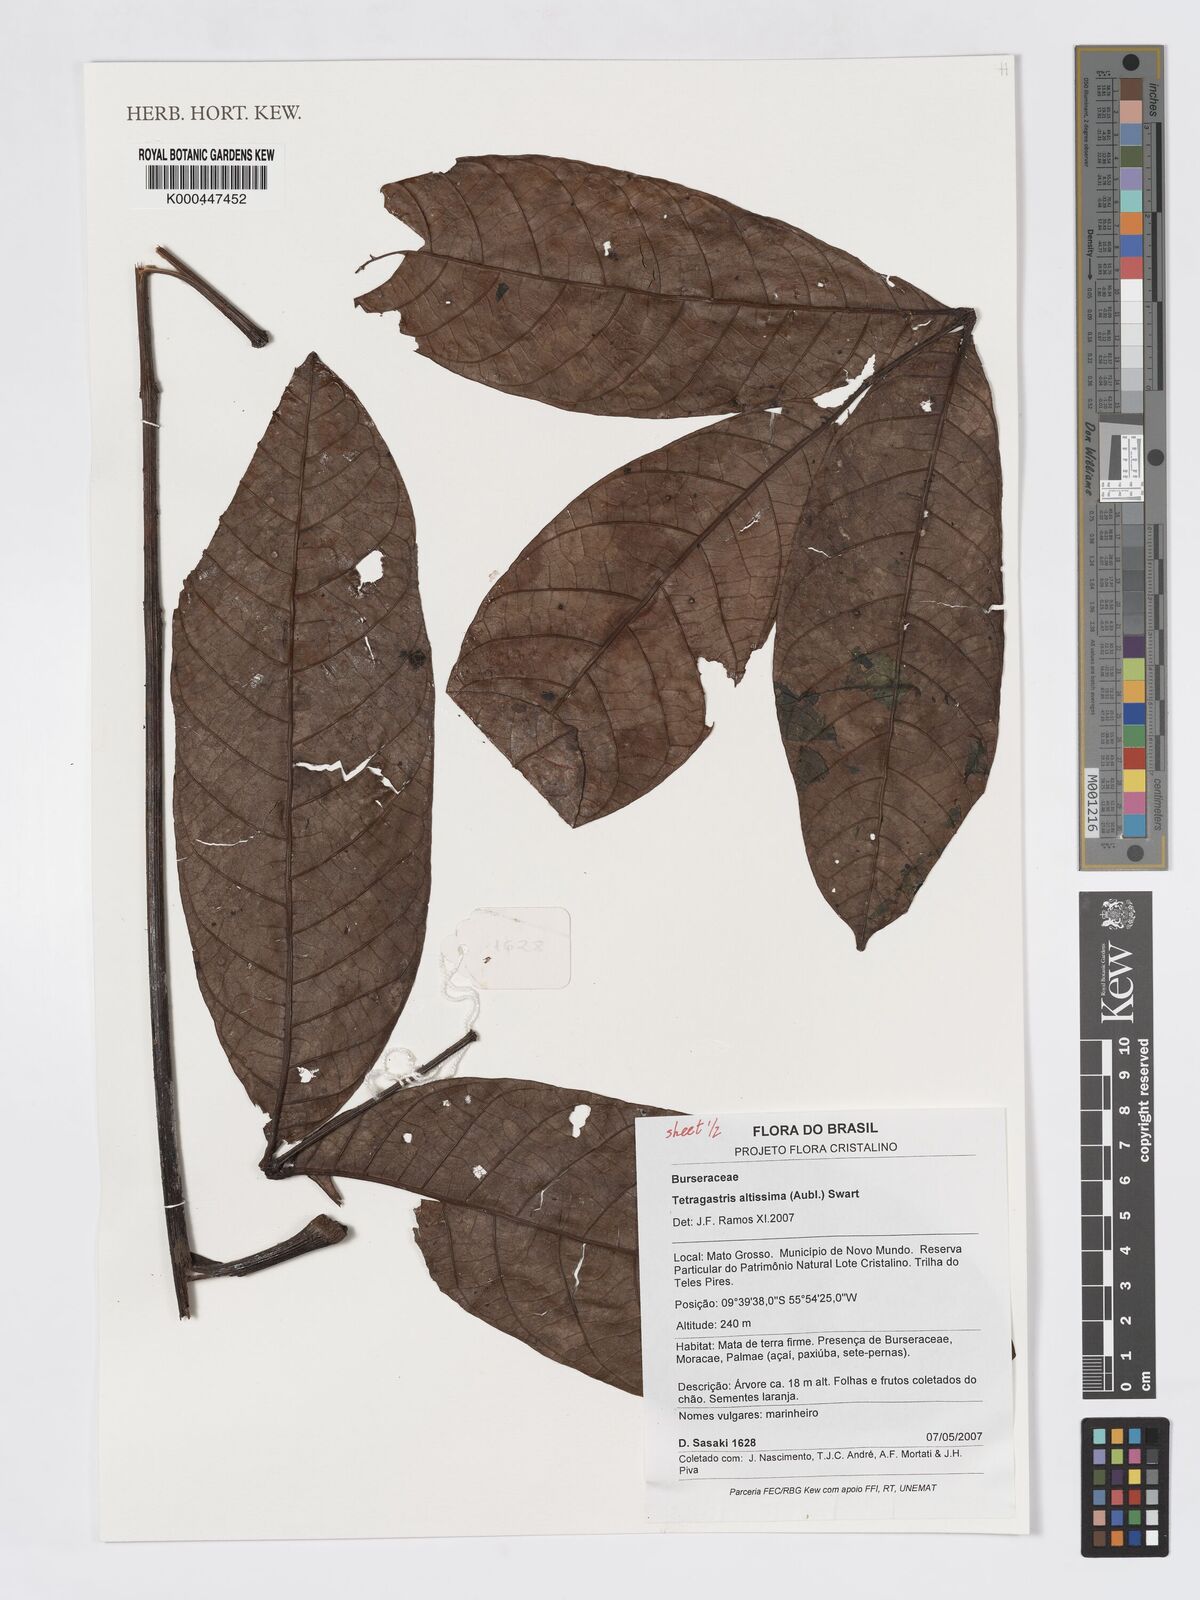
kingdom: Plantae
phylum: Tracheophyta
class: Magnoliopsida
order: Sapindales
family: Burseraceae
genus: Tetragastris
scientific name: Tetragastris altissima
